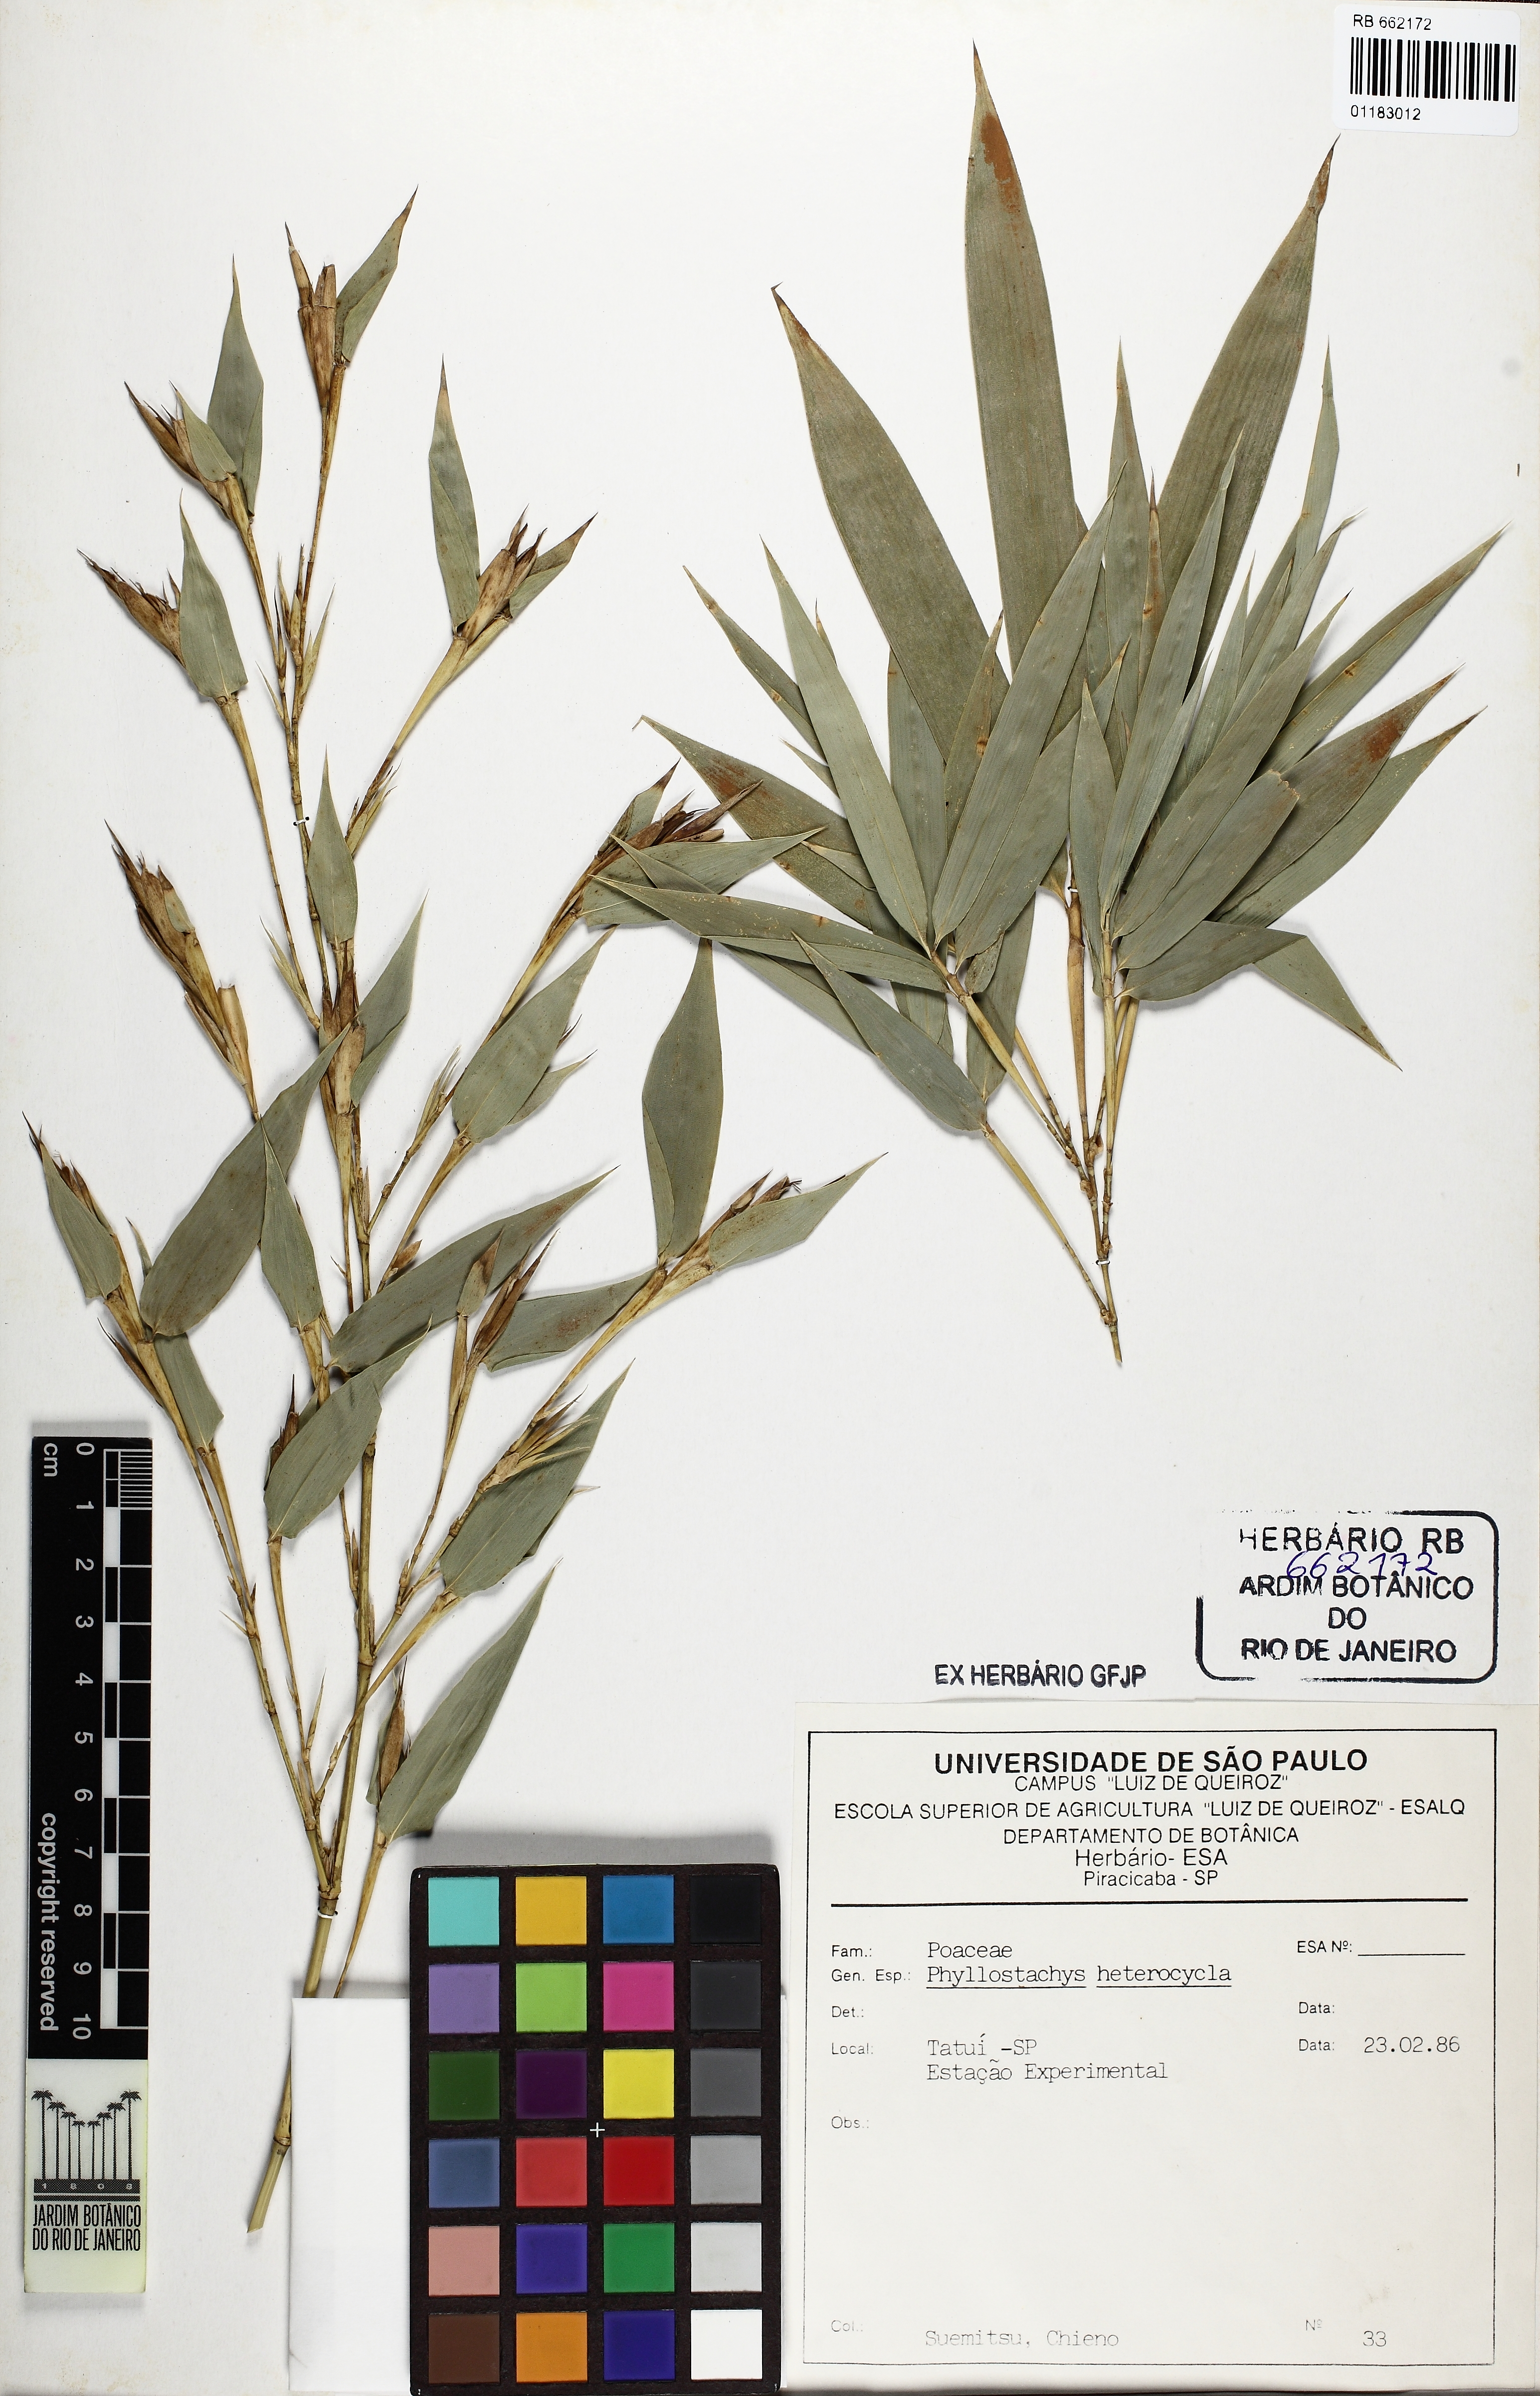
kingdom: Plantae
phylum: Tracheophyta
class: Liliopsida
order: Poales
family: Poaceae
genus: Phyllostachys
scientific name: Phyllostachys edulis
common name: Tortoise shell bamboo
